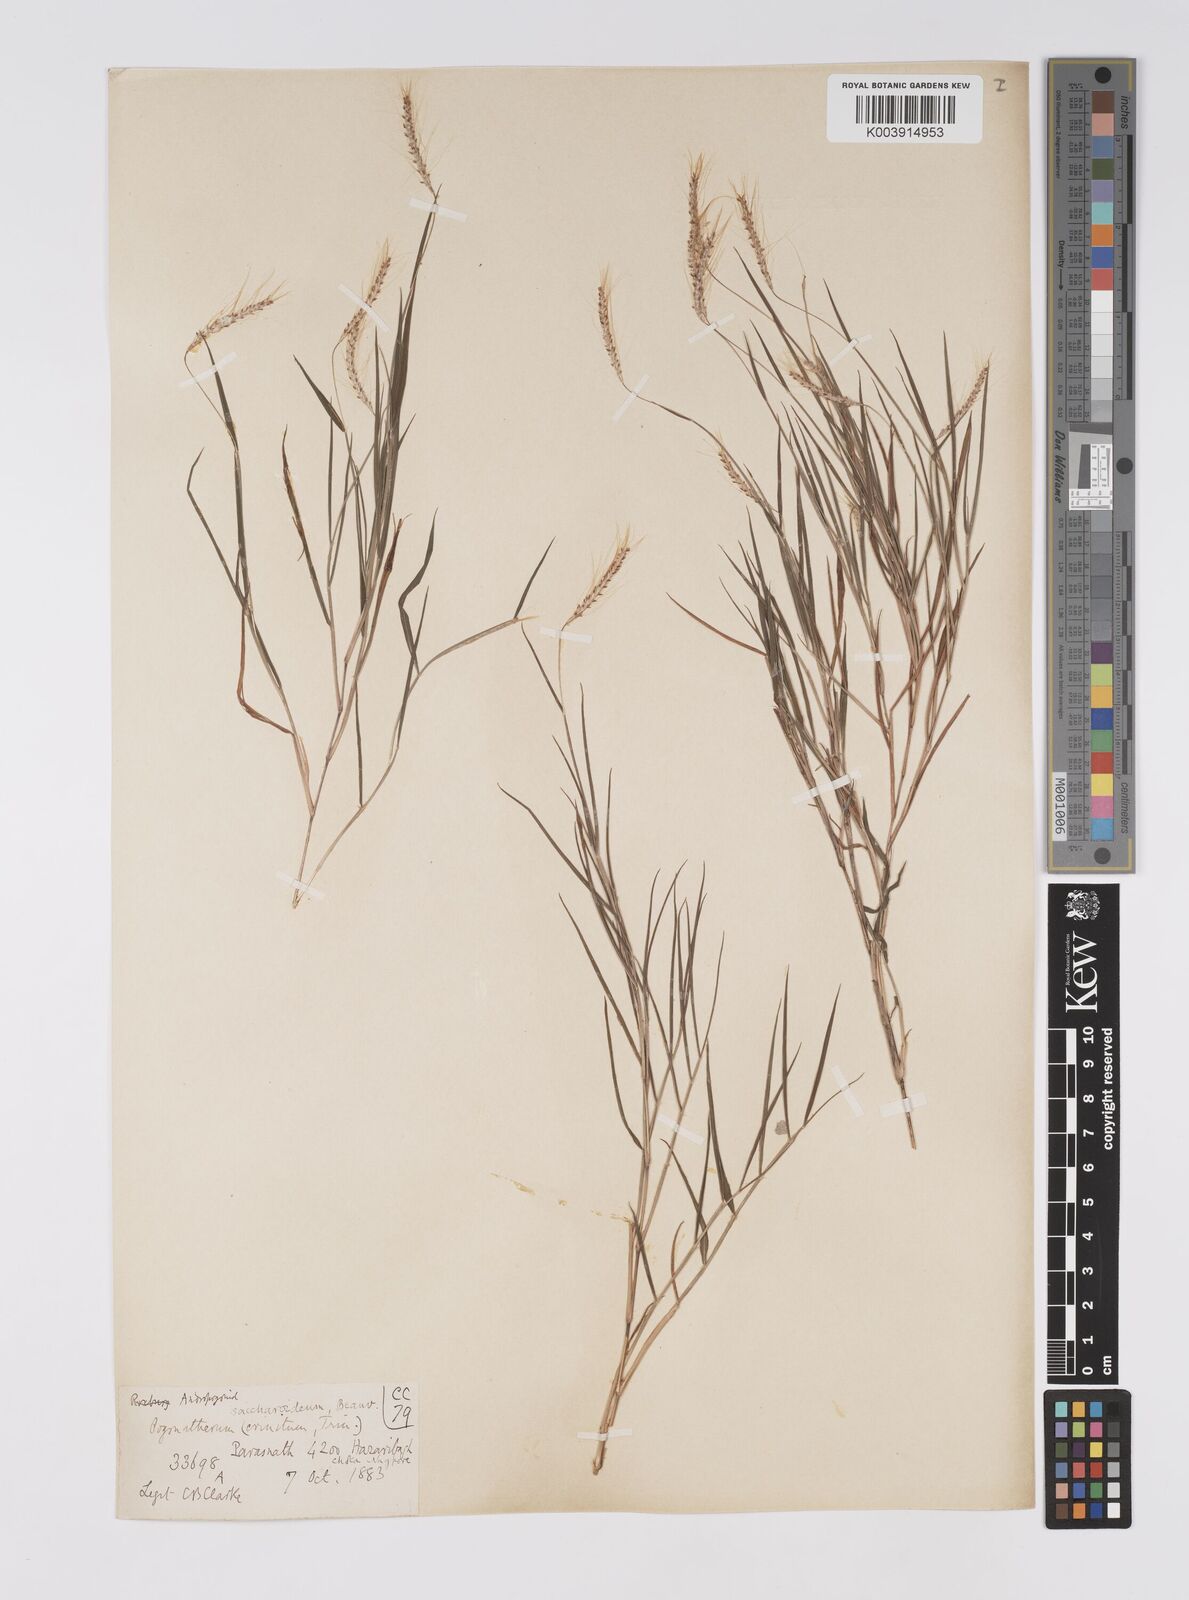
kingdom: Plantae
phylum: Tracheophyta
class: Liliopsida
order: Poales
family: Poaceae
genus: Pogonatherum
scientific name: Pogonatherum paniceum
